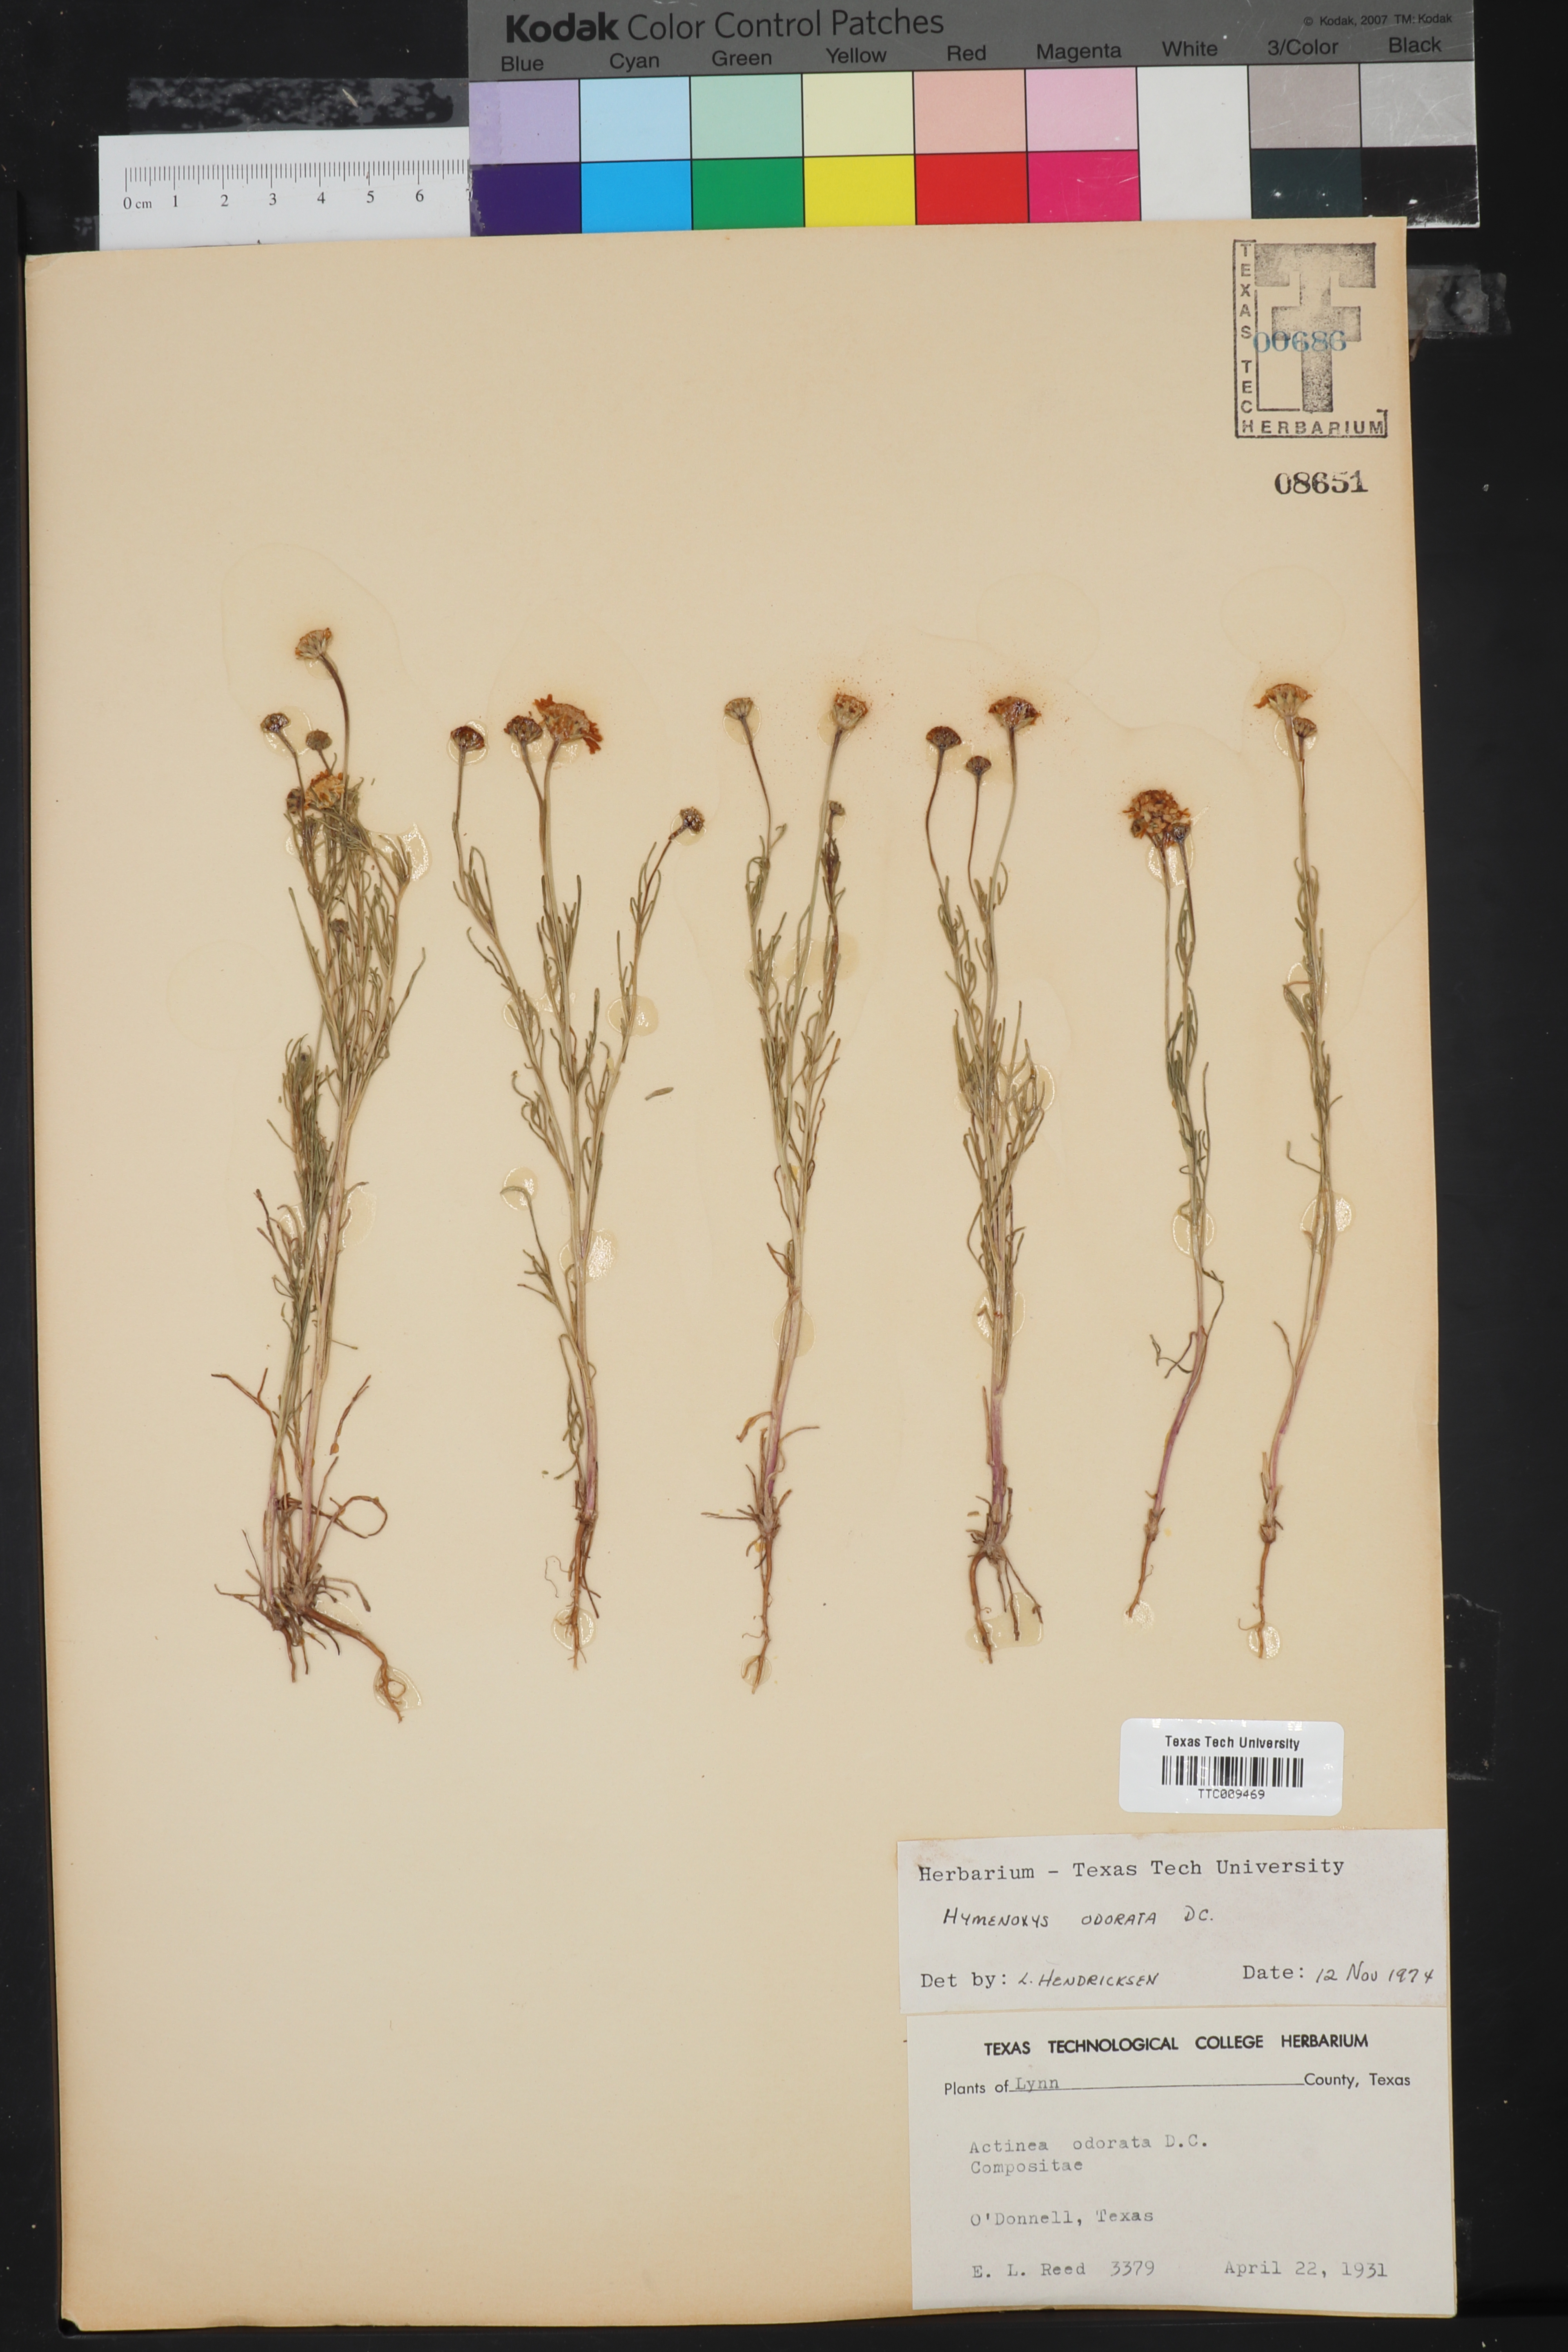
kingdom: Plantae
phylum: Tracheophyta
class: Magnoliopsida
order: Asterales
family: Asteraceae
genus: Hymenoxys
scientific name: Hymenoxys odorata
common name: Bitter rubberweed
